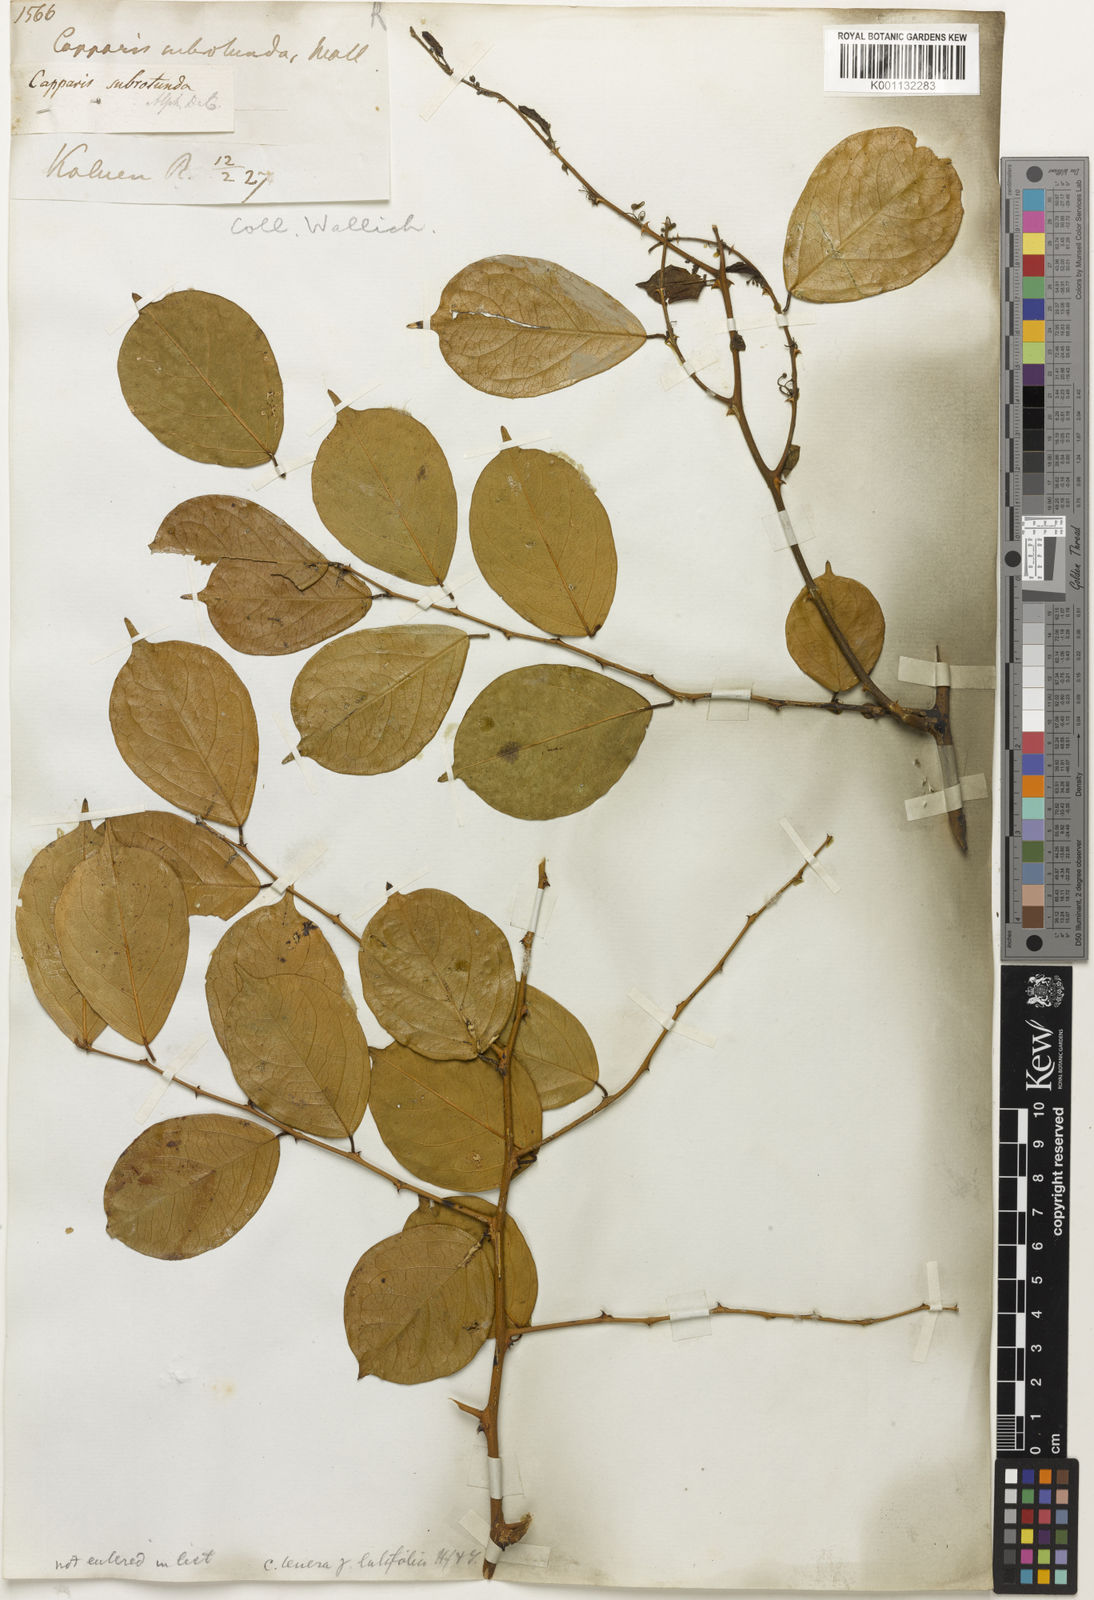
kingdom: Plantae
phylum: Tracheophyta
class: Magnoliopsida
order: Brassicales
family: Capparaceae
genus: Capparis
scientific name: Capparis
